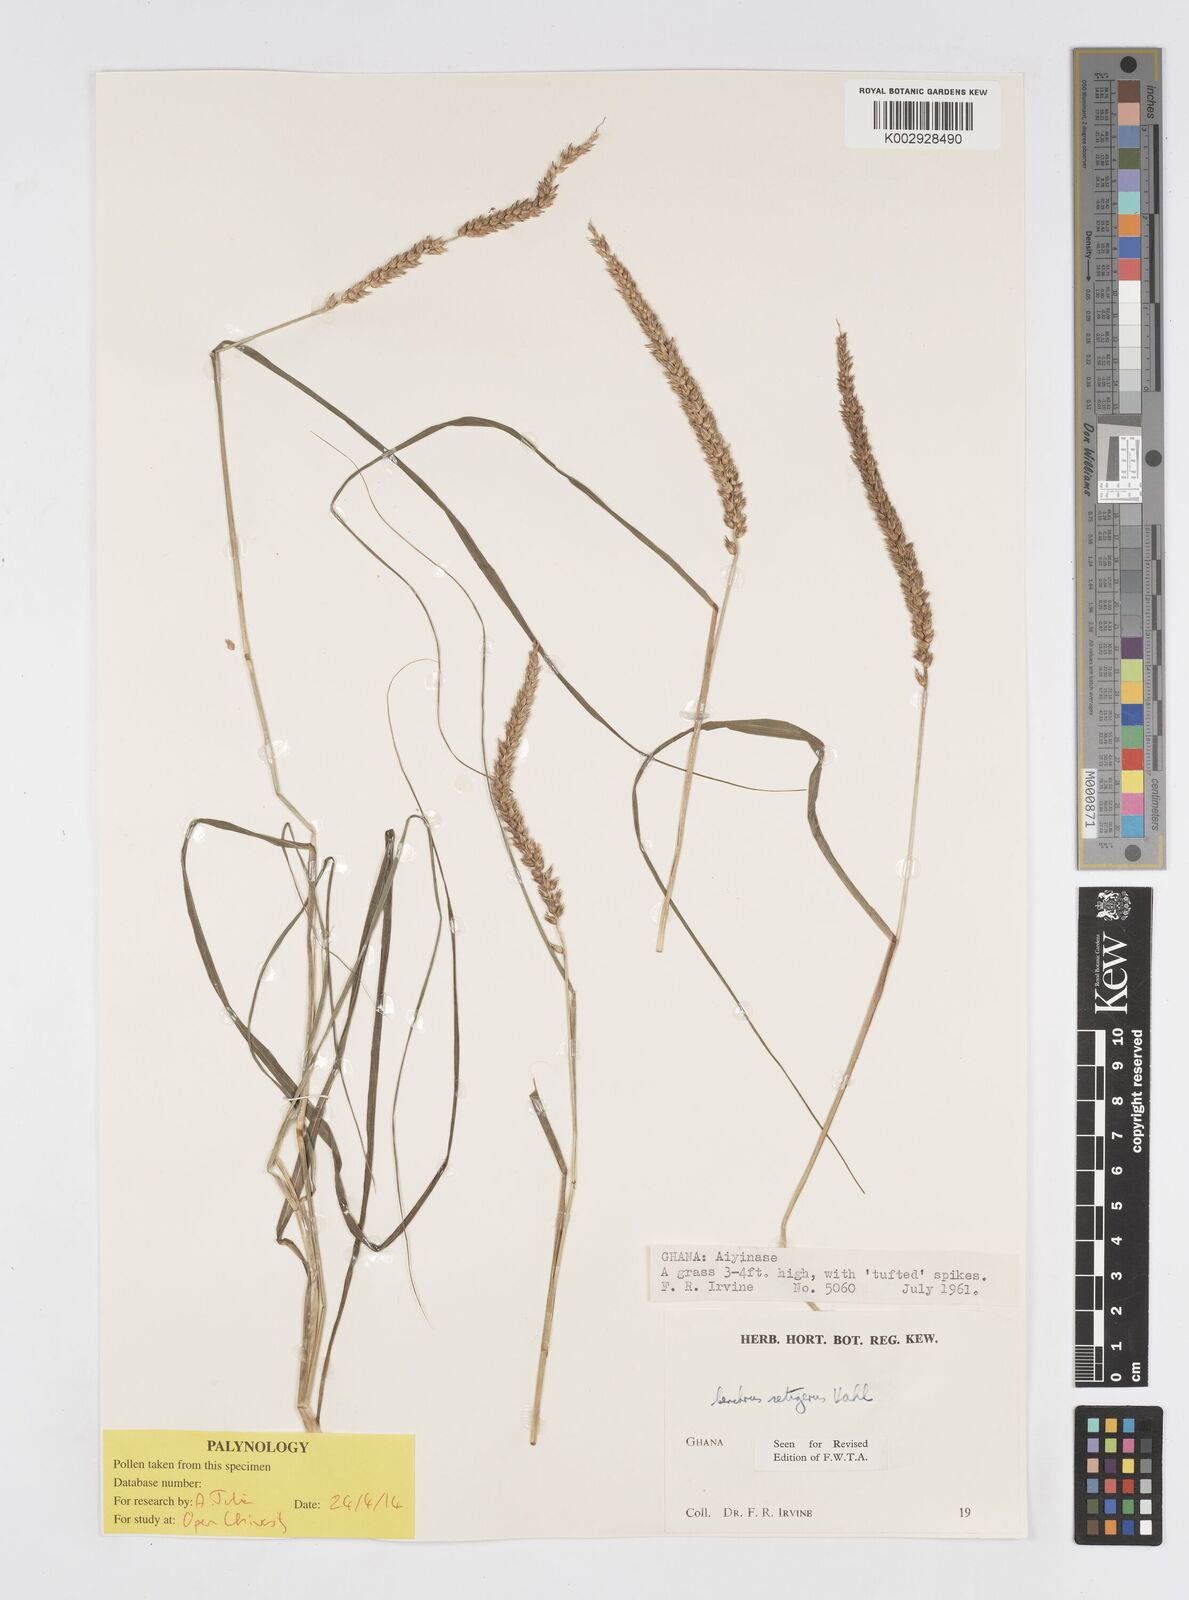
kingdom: Plantae
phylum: Tracheophyta
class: Liliopsida
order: Poales
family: Poaceae
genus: Cenchrus
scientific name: Cenchrus setigerus
